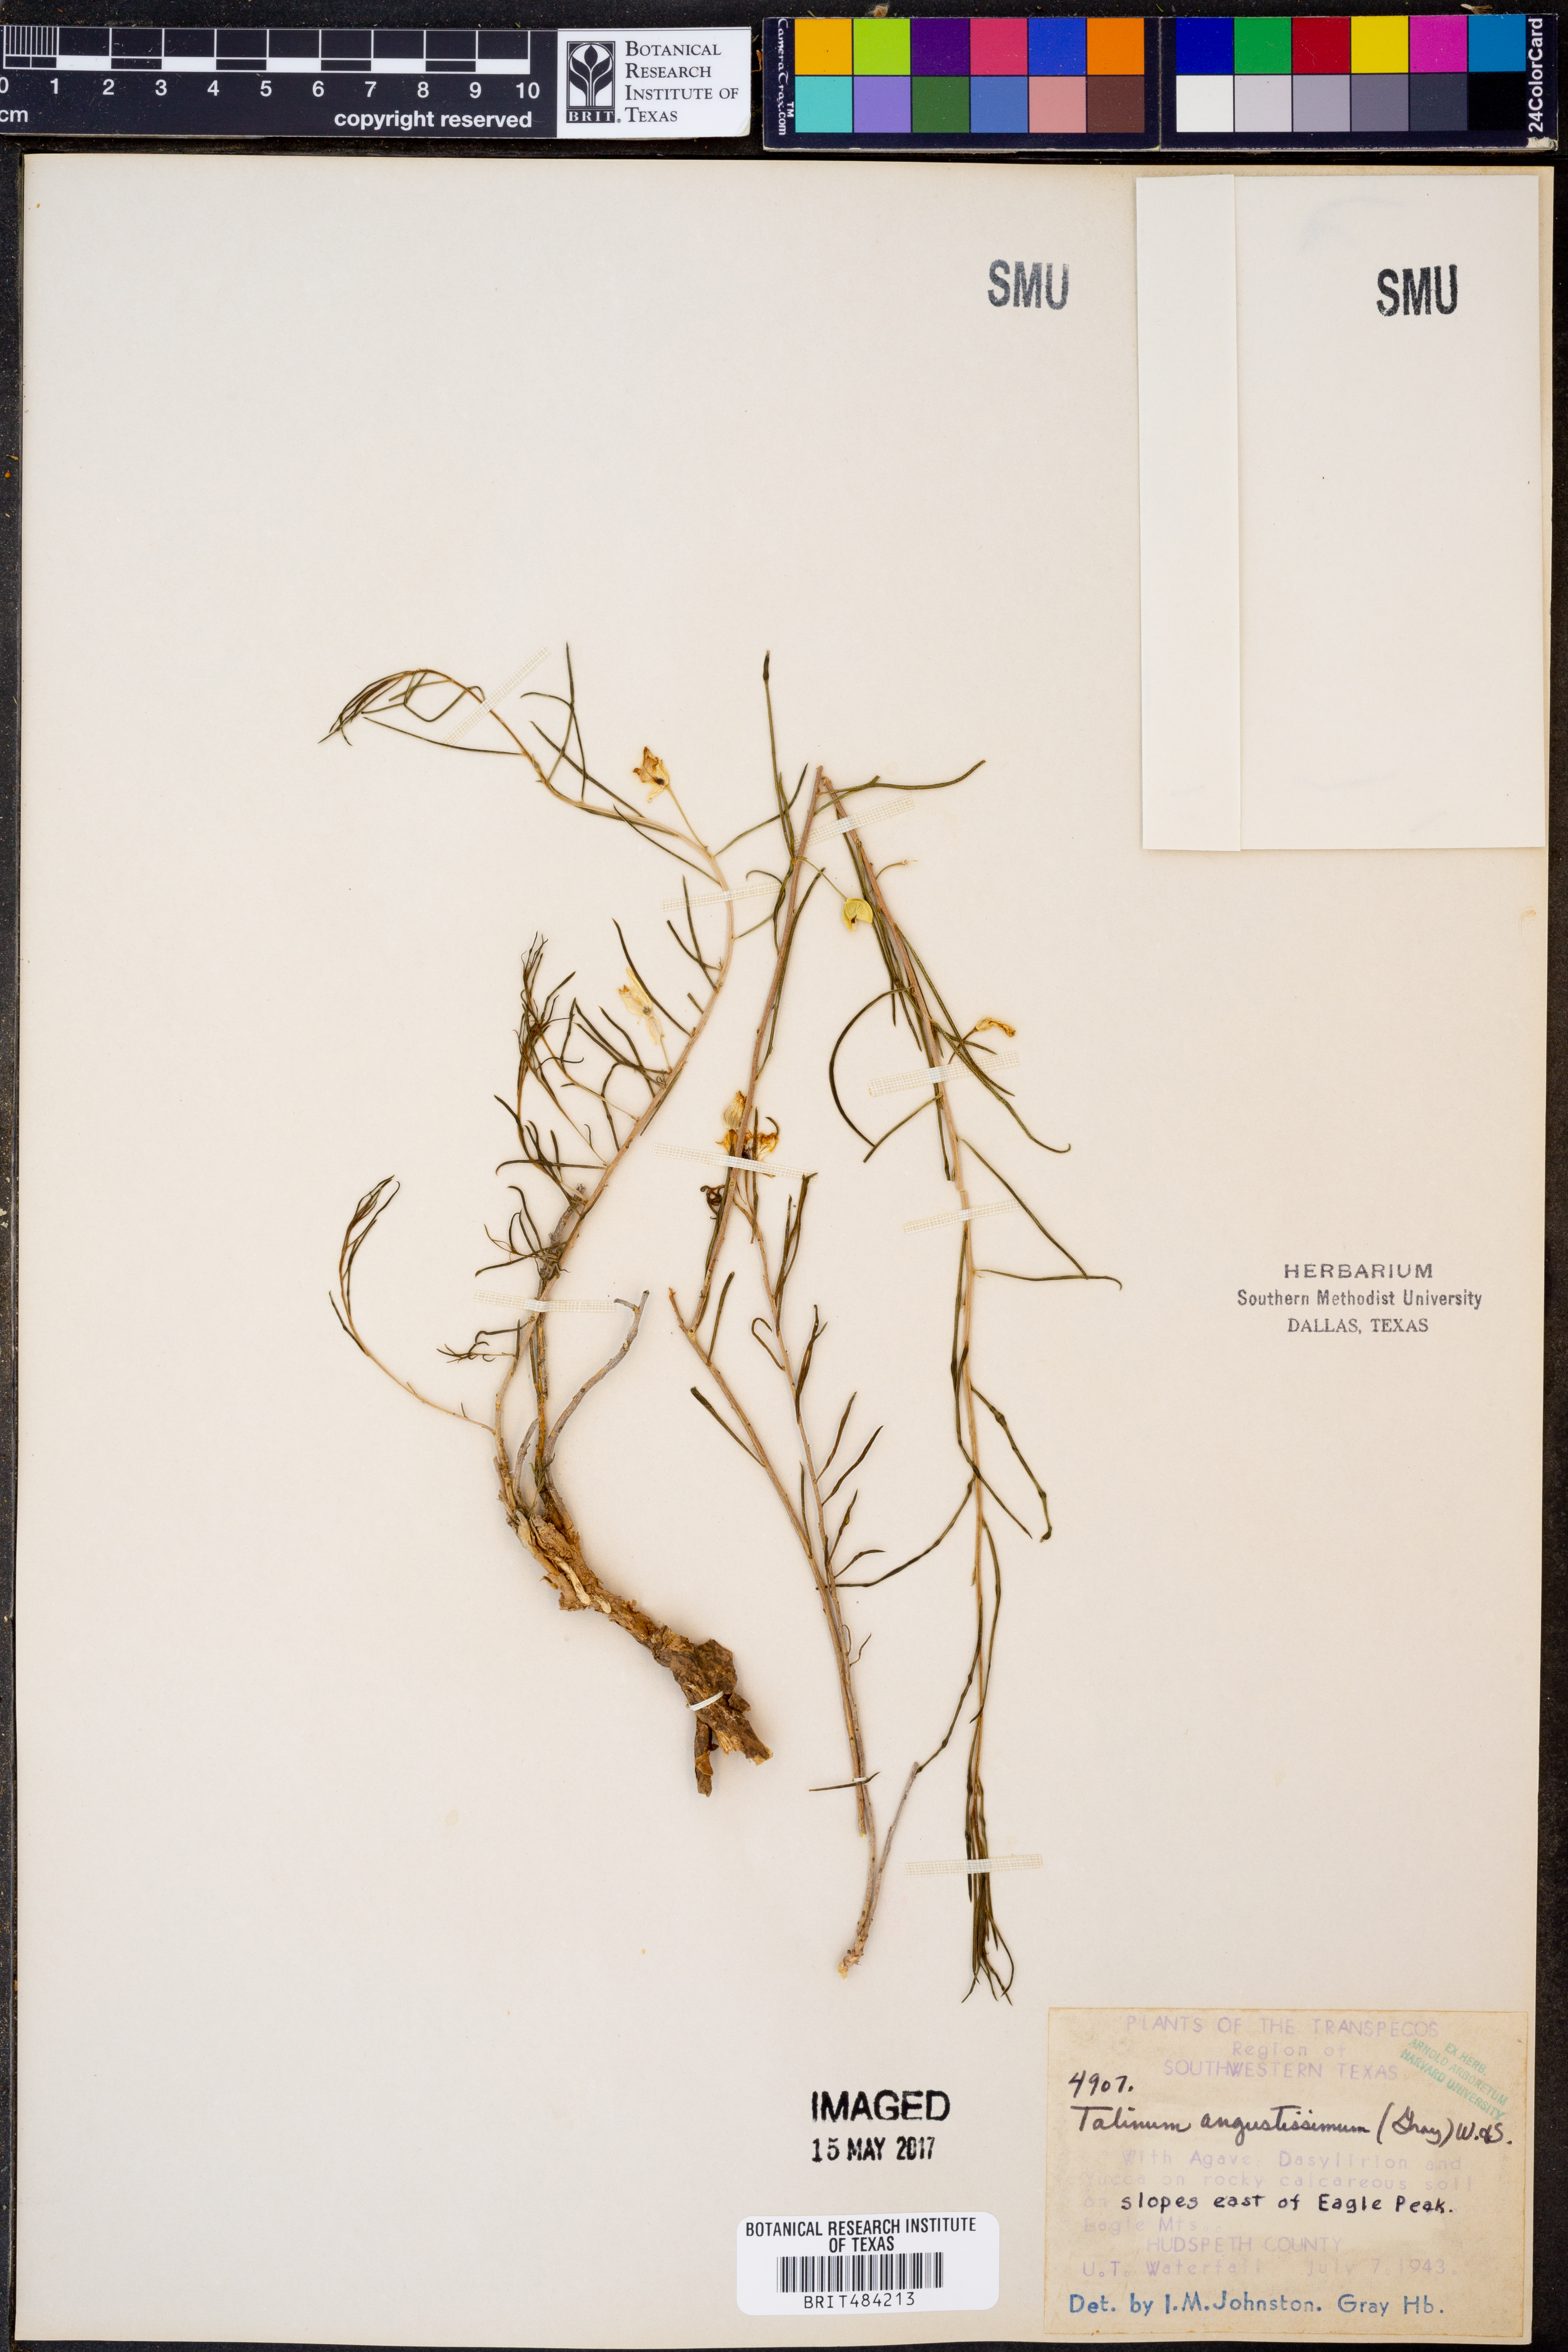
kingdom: Plantae
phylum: Tracheophyta
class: Magnoliopsida
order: Caryophyllales
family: Montiaceae
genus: Phemeranthus
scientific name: Phemeranthus aurantiacus
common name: Orange fameflower
